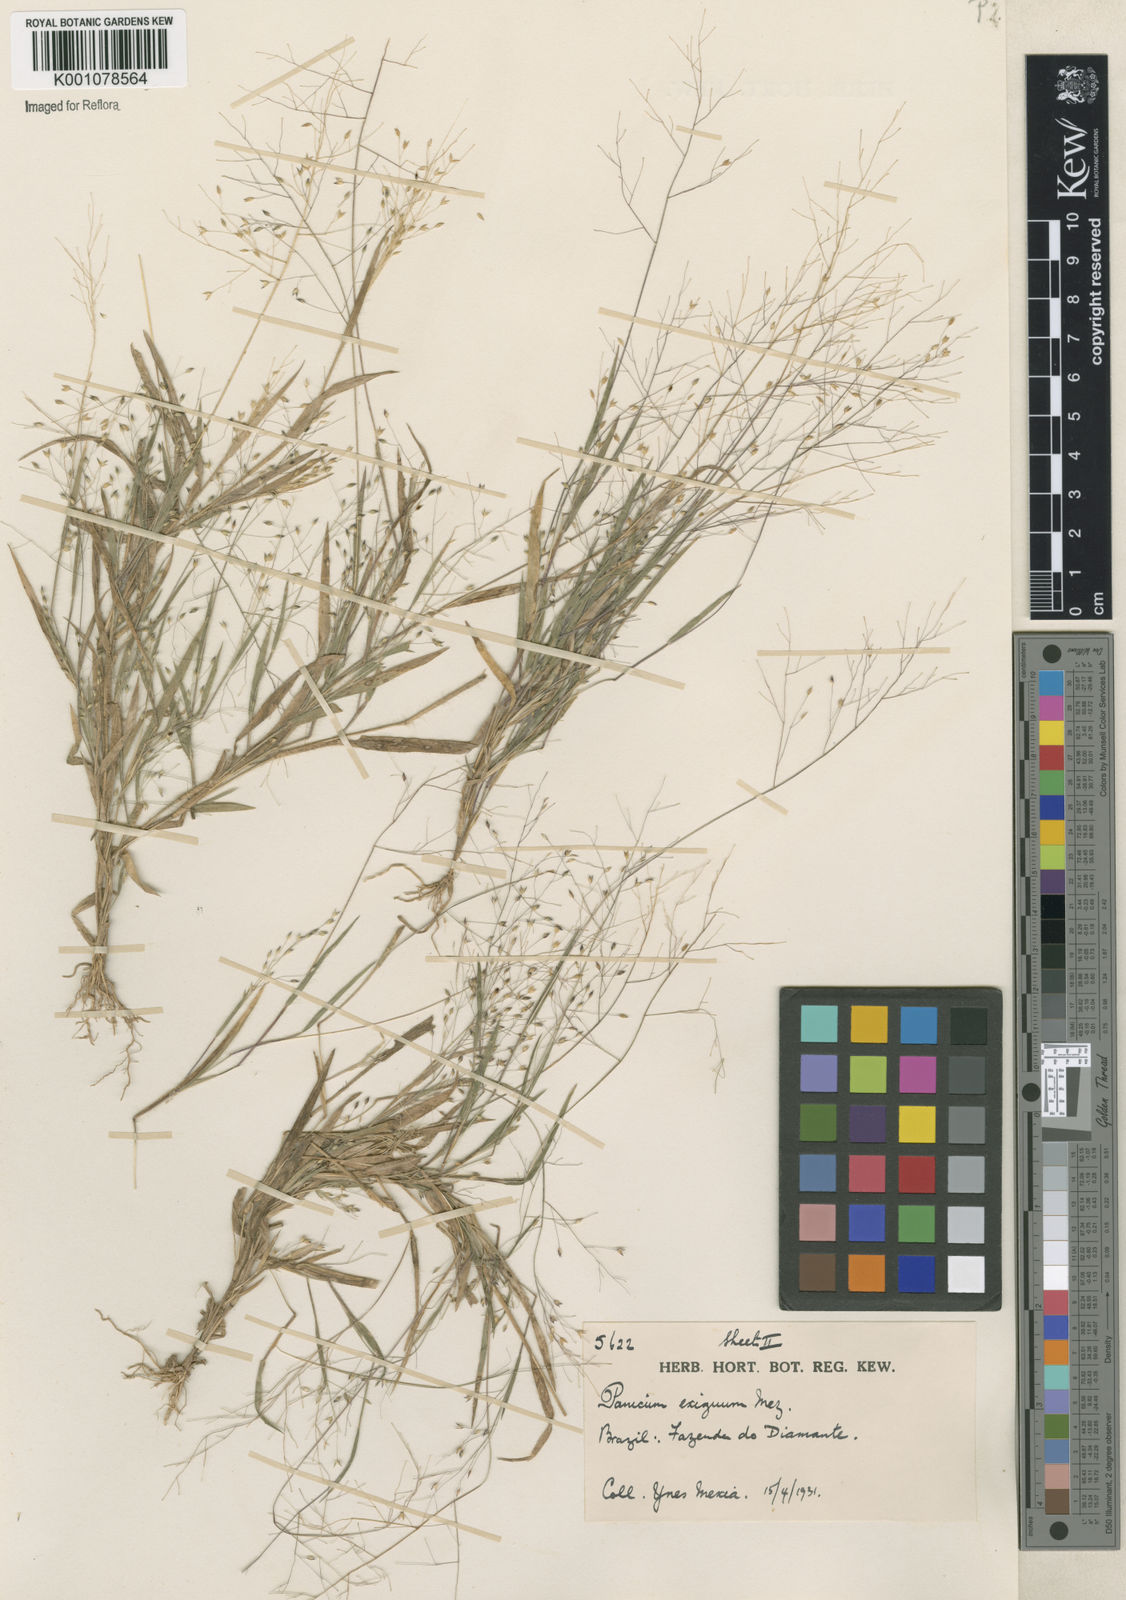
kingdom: Plantae
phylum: Tracheophyta
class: Liliopsida
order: Poales
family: Poaceae
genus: Panicum
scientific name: Panicum exiguum
